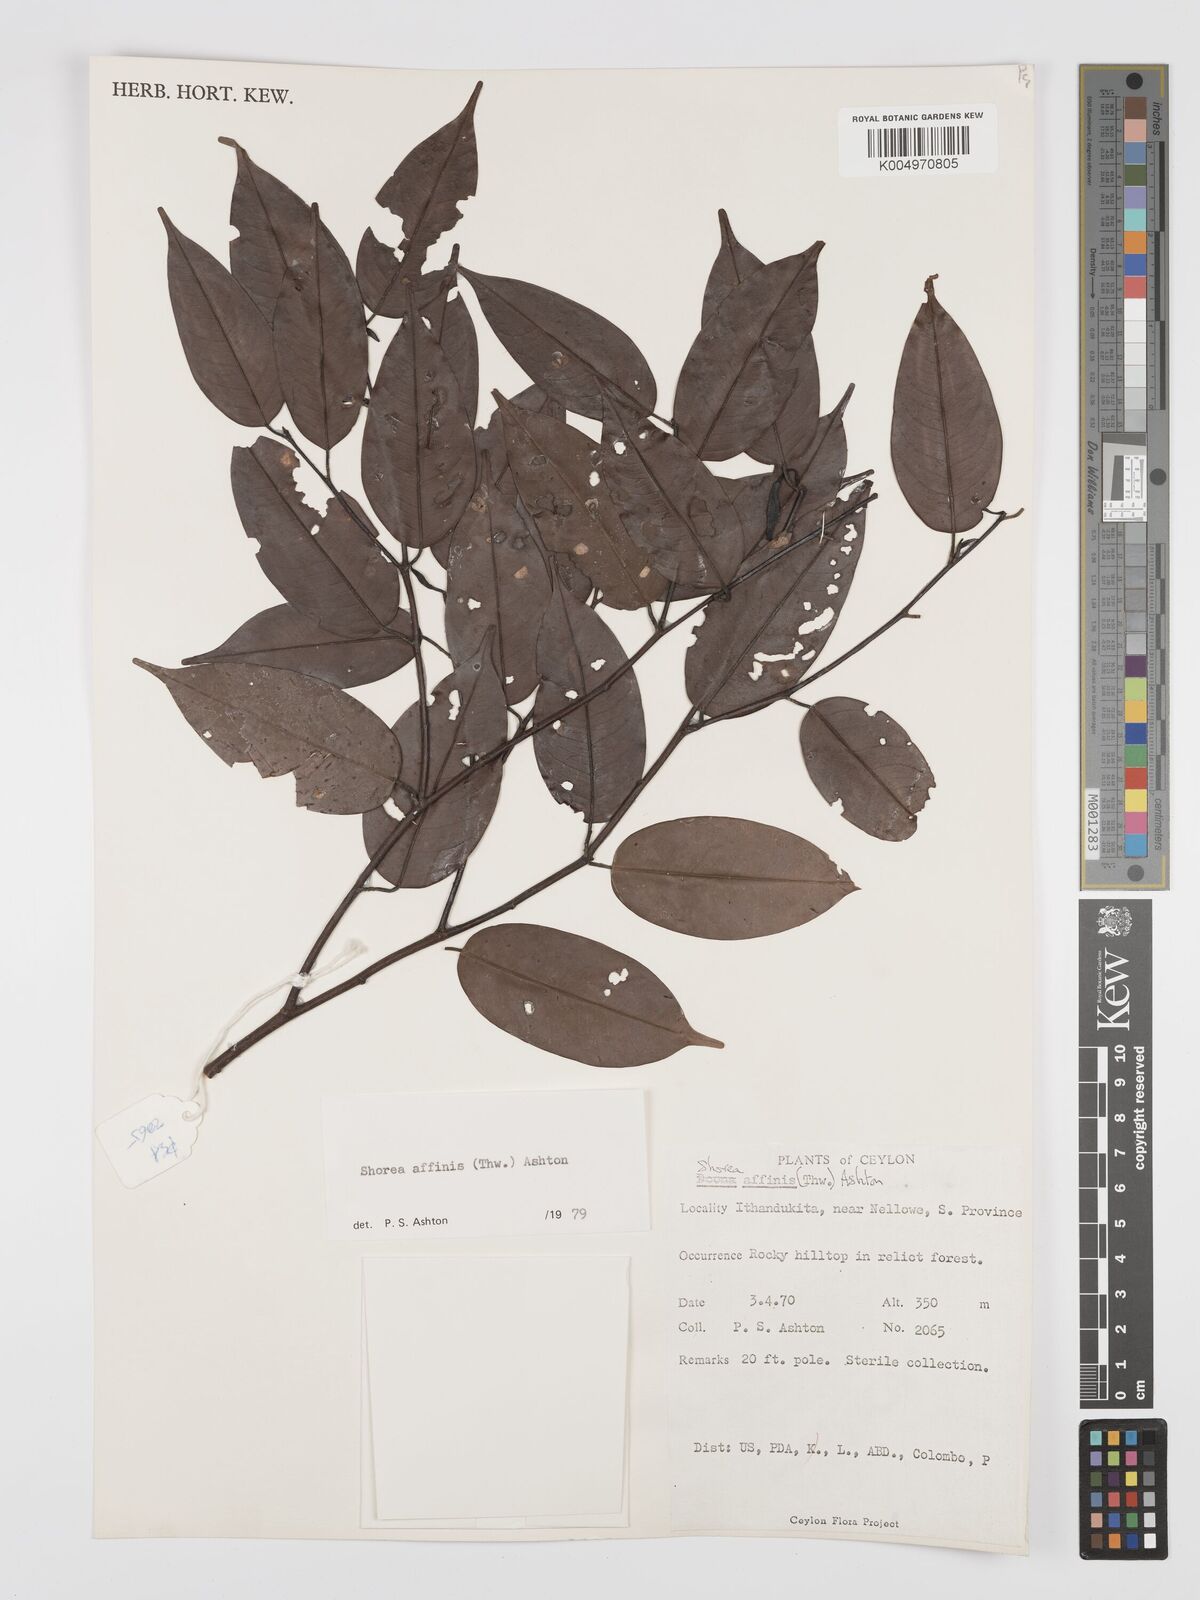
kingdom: Plantae
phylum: Tracheophyta
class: Magnoliopsida
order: Malvales
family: Dipterocarpaceae
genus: Doona
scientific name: Doona affinis
